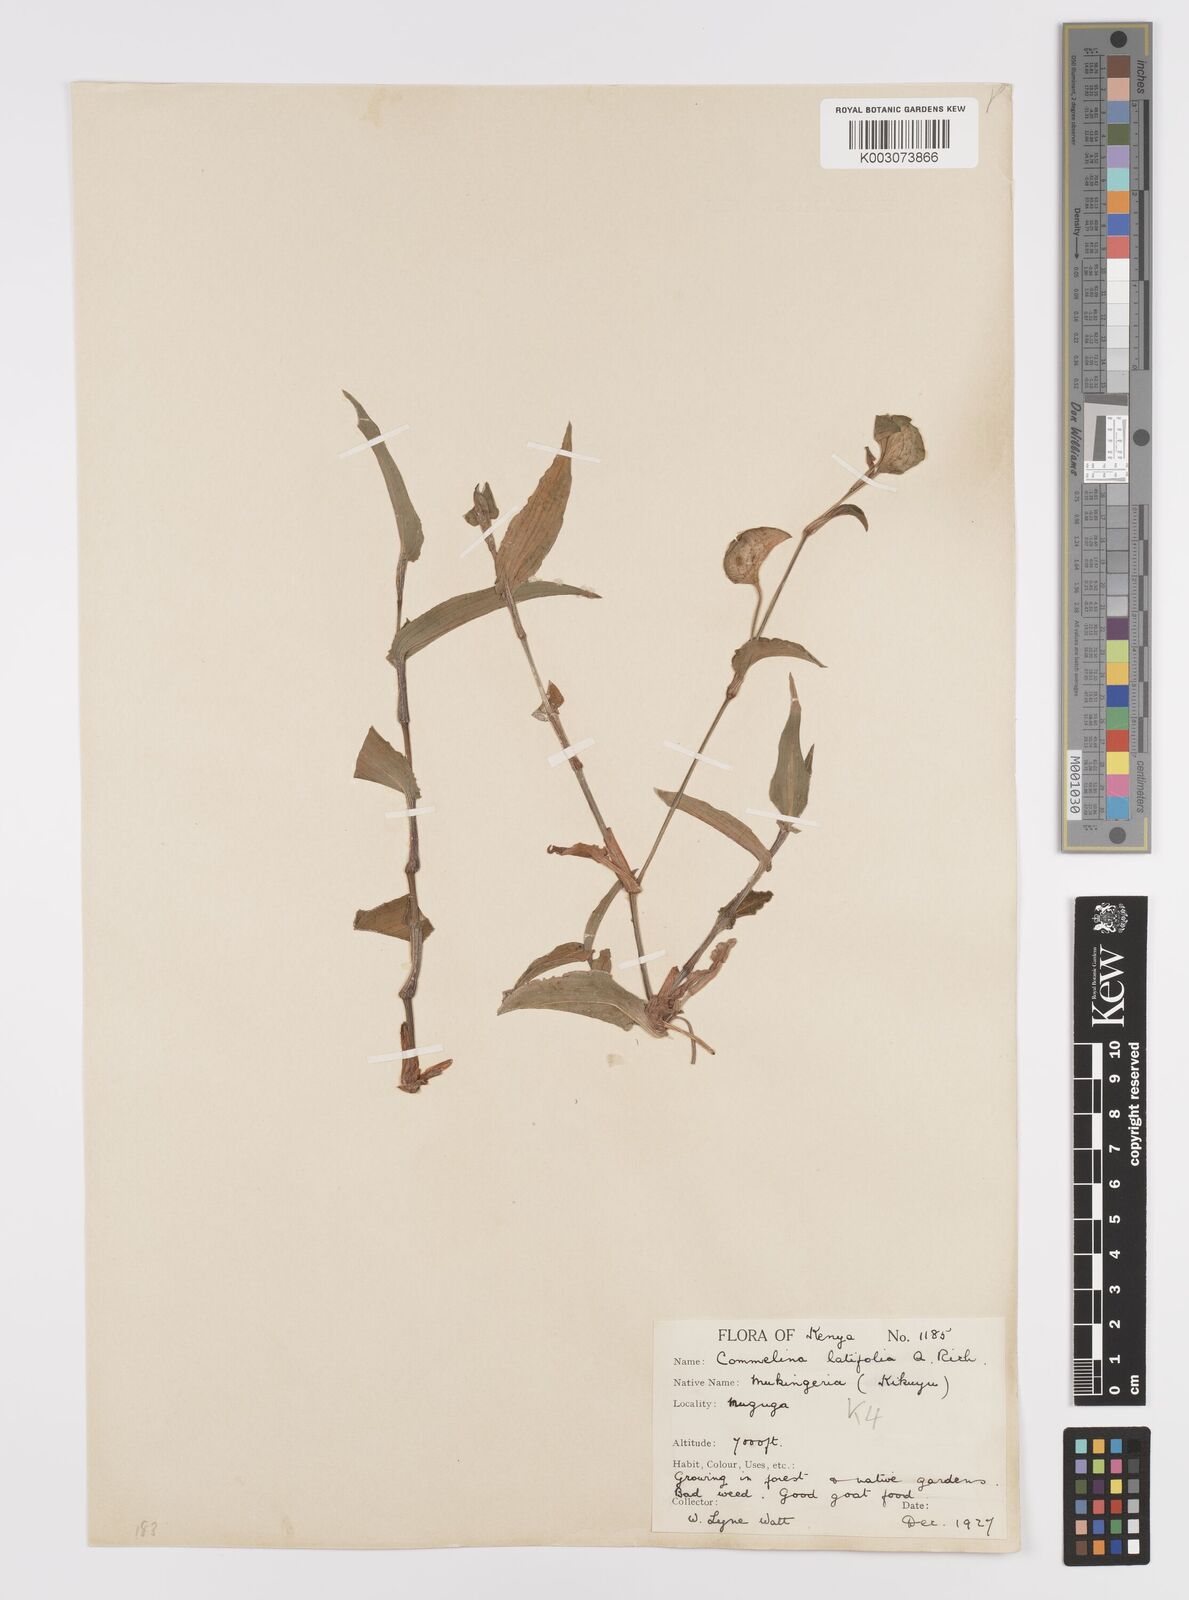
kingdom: Plantae
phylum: Tracheophyta
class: Liliopsida
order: Commelinales
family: Commelinaceae
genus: Commelina
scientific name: Commelina latifolia
